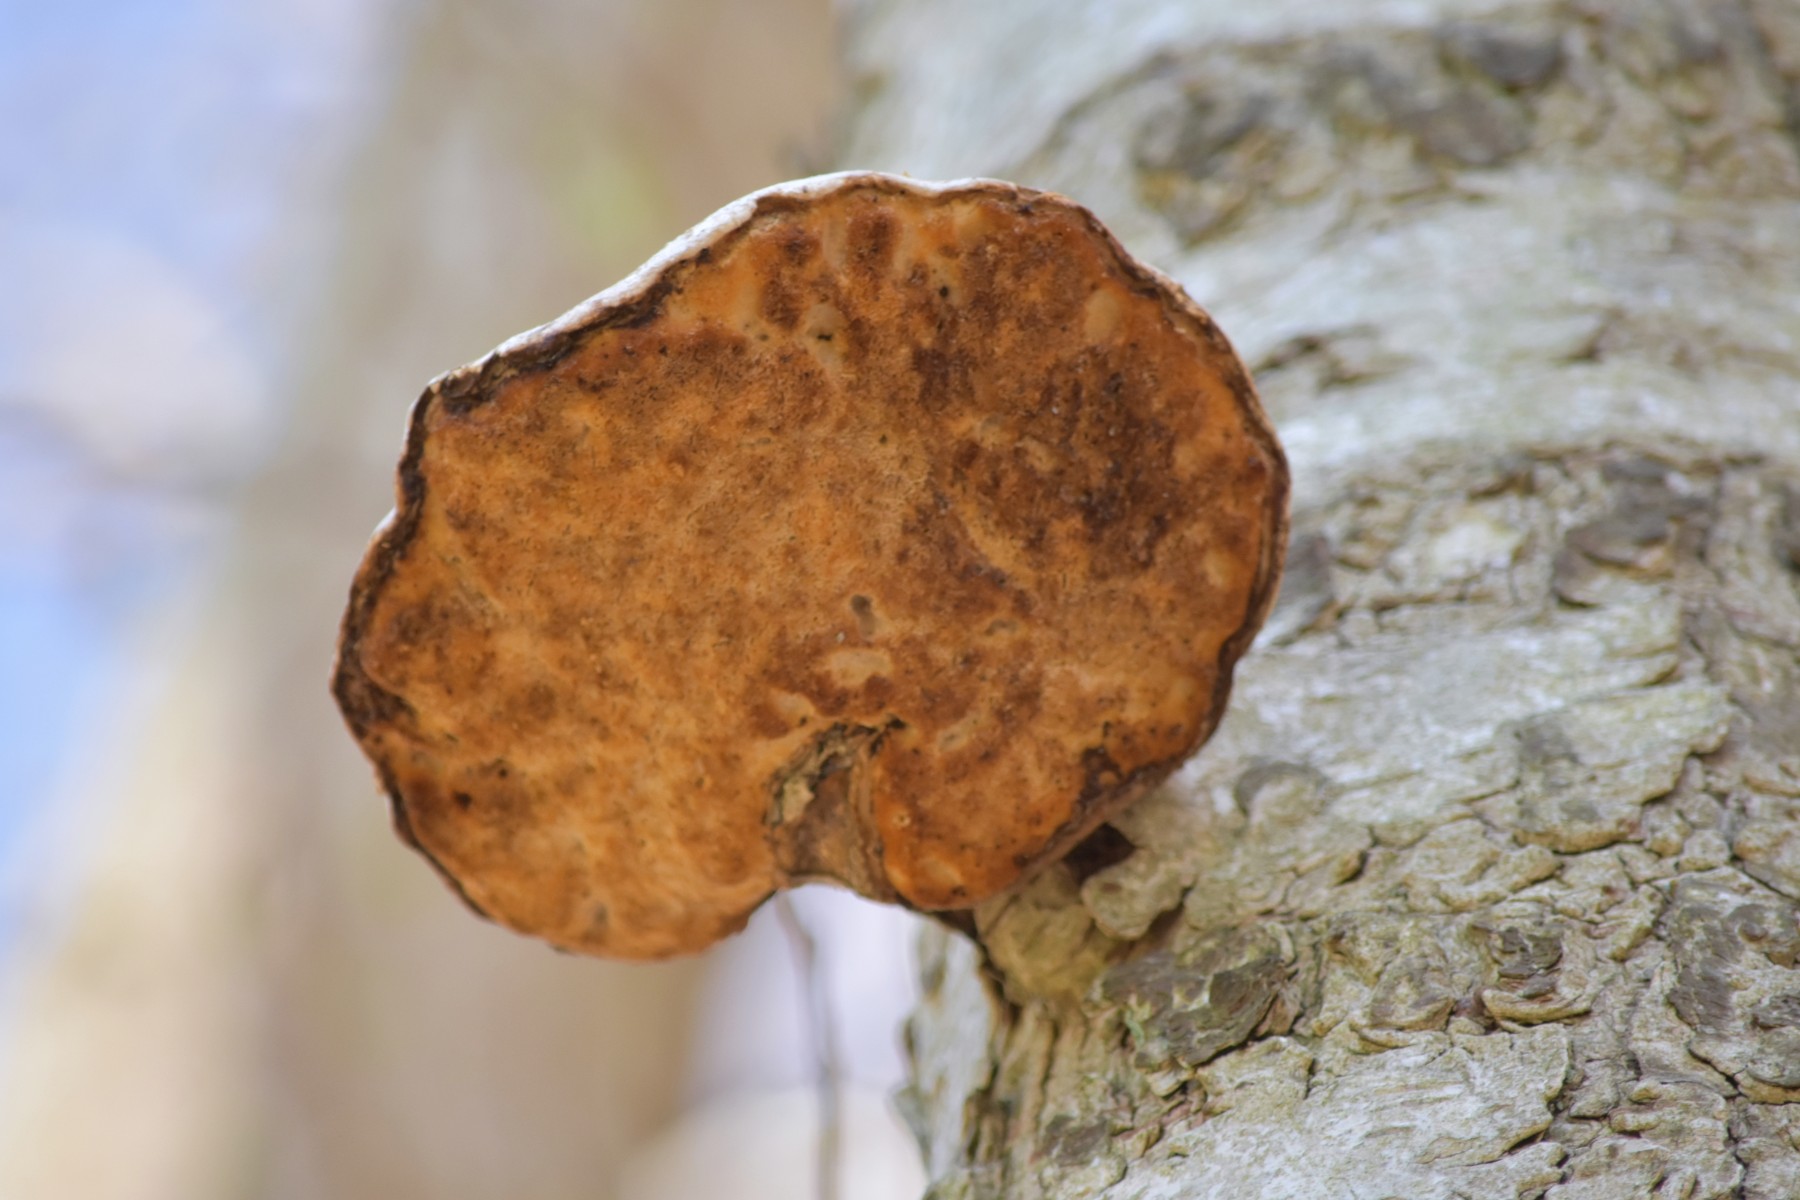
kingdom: Fungi
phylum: Basidiomycota
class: Agaricomycetes
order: Polyporales
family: Fomitopsidaceae
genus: Fomitopsis
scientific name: Fomitopsis betulina
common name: birkeporesvamp
